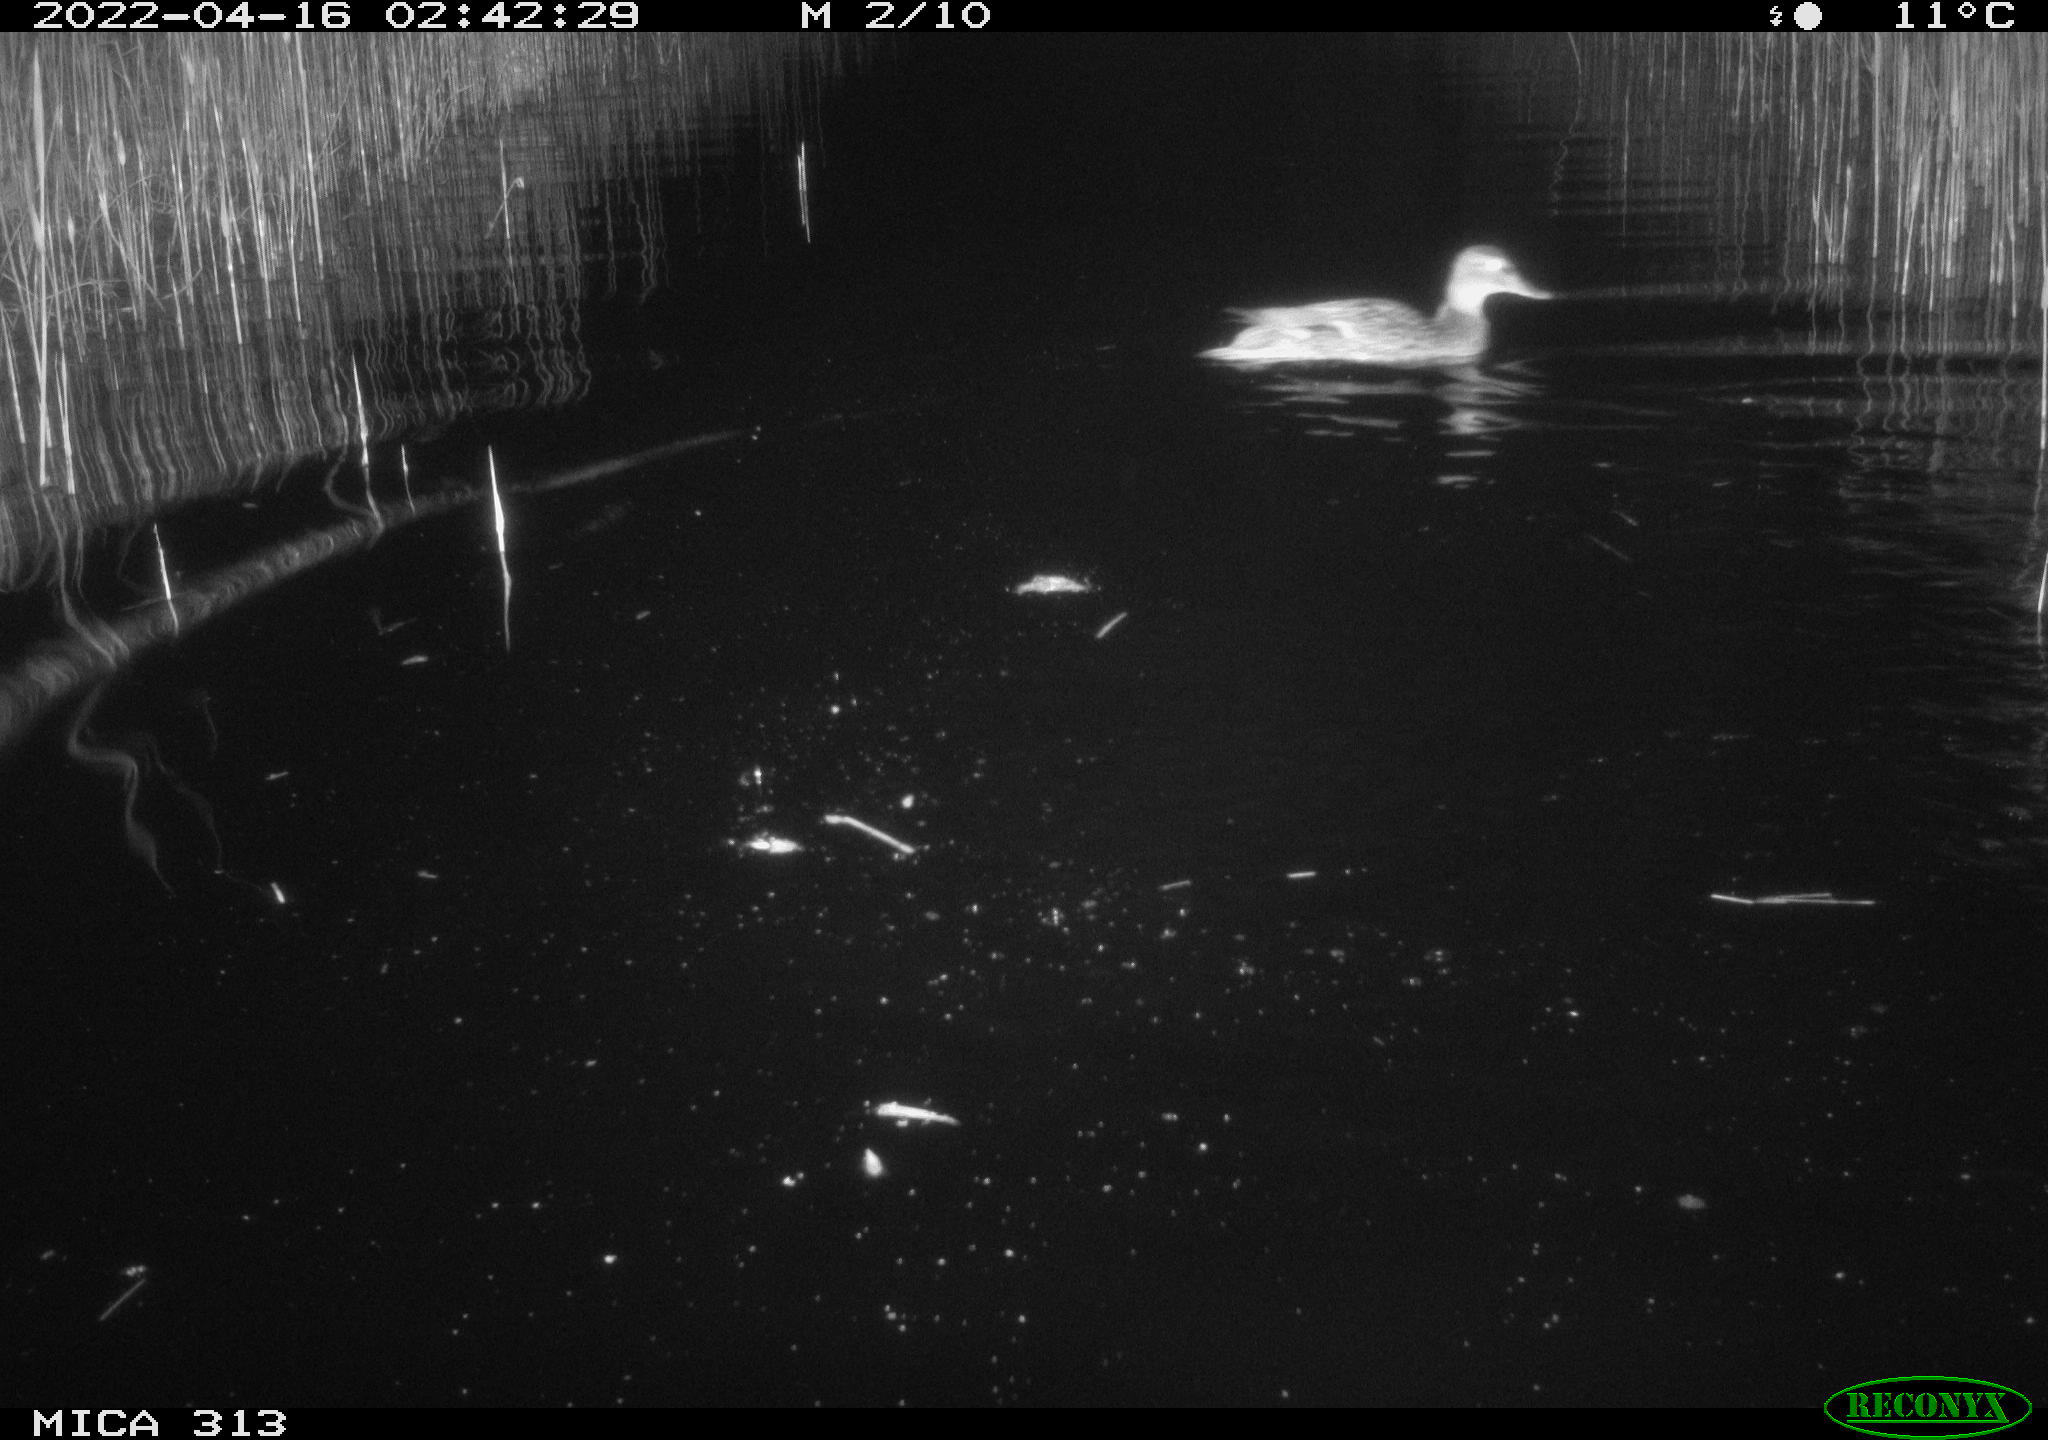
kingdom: Animalia
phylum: Chordata
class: Aves
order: Anseriformes
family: Anatidae
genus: Mareca
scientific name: Mareca strepera
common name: Gadwall
